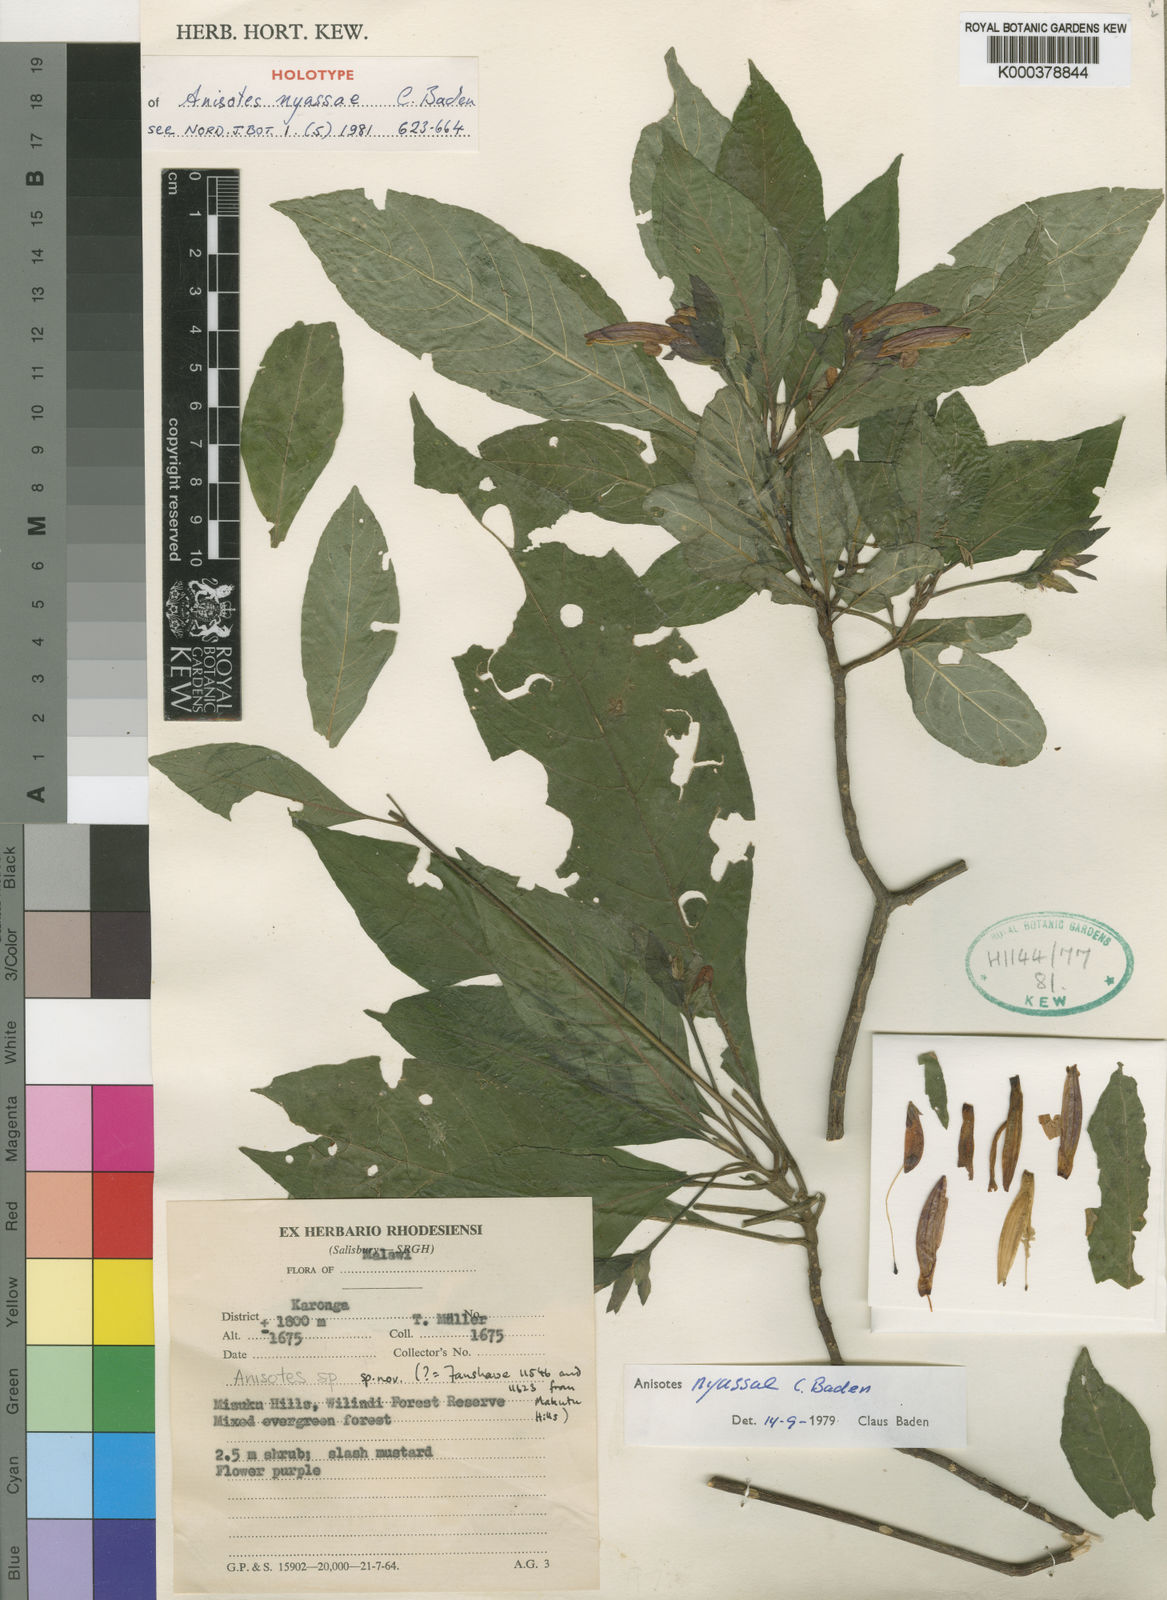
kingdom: Plantae
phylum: Tracheophyta
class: Magnoliopsida
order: Lamiales
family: Acanthaceae
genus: Anisotes
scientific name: Anisotes nyassae
